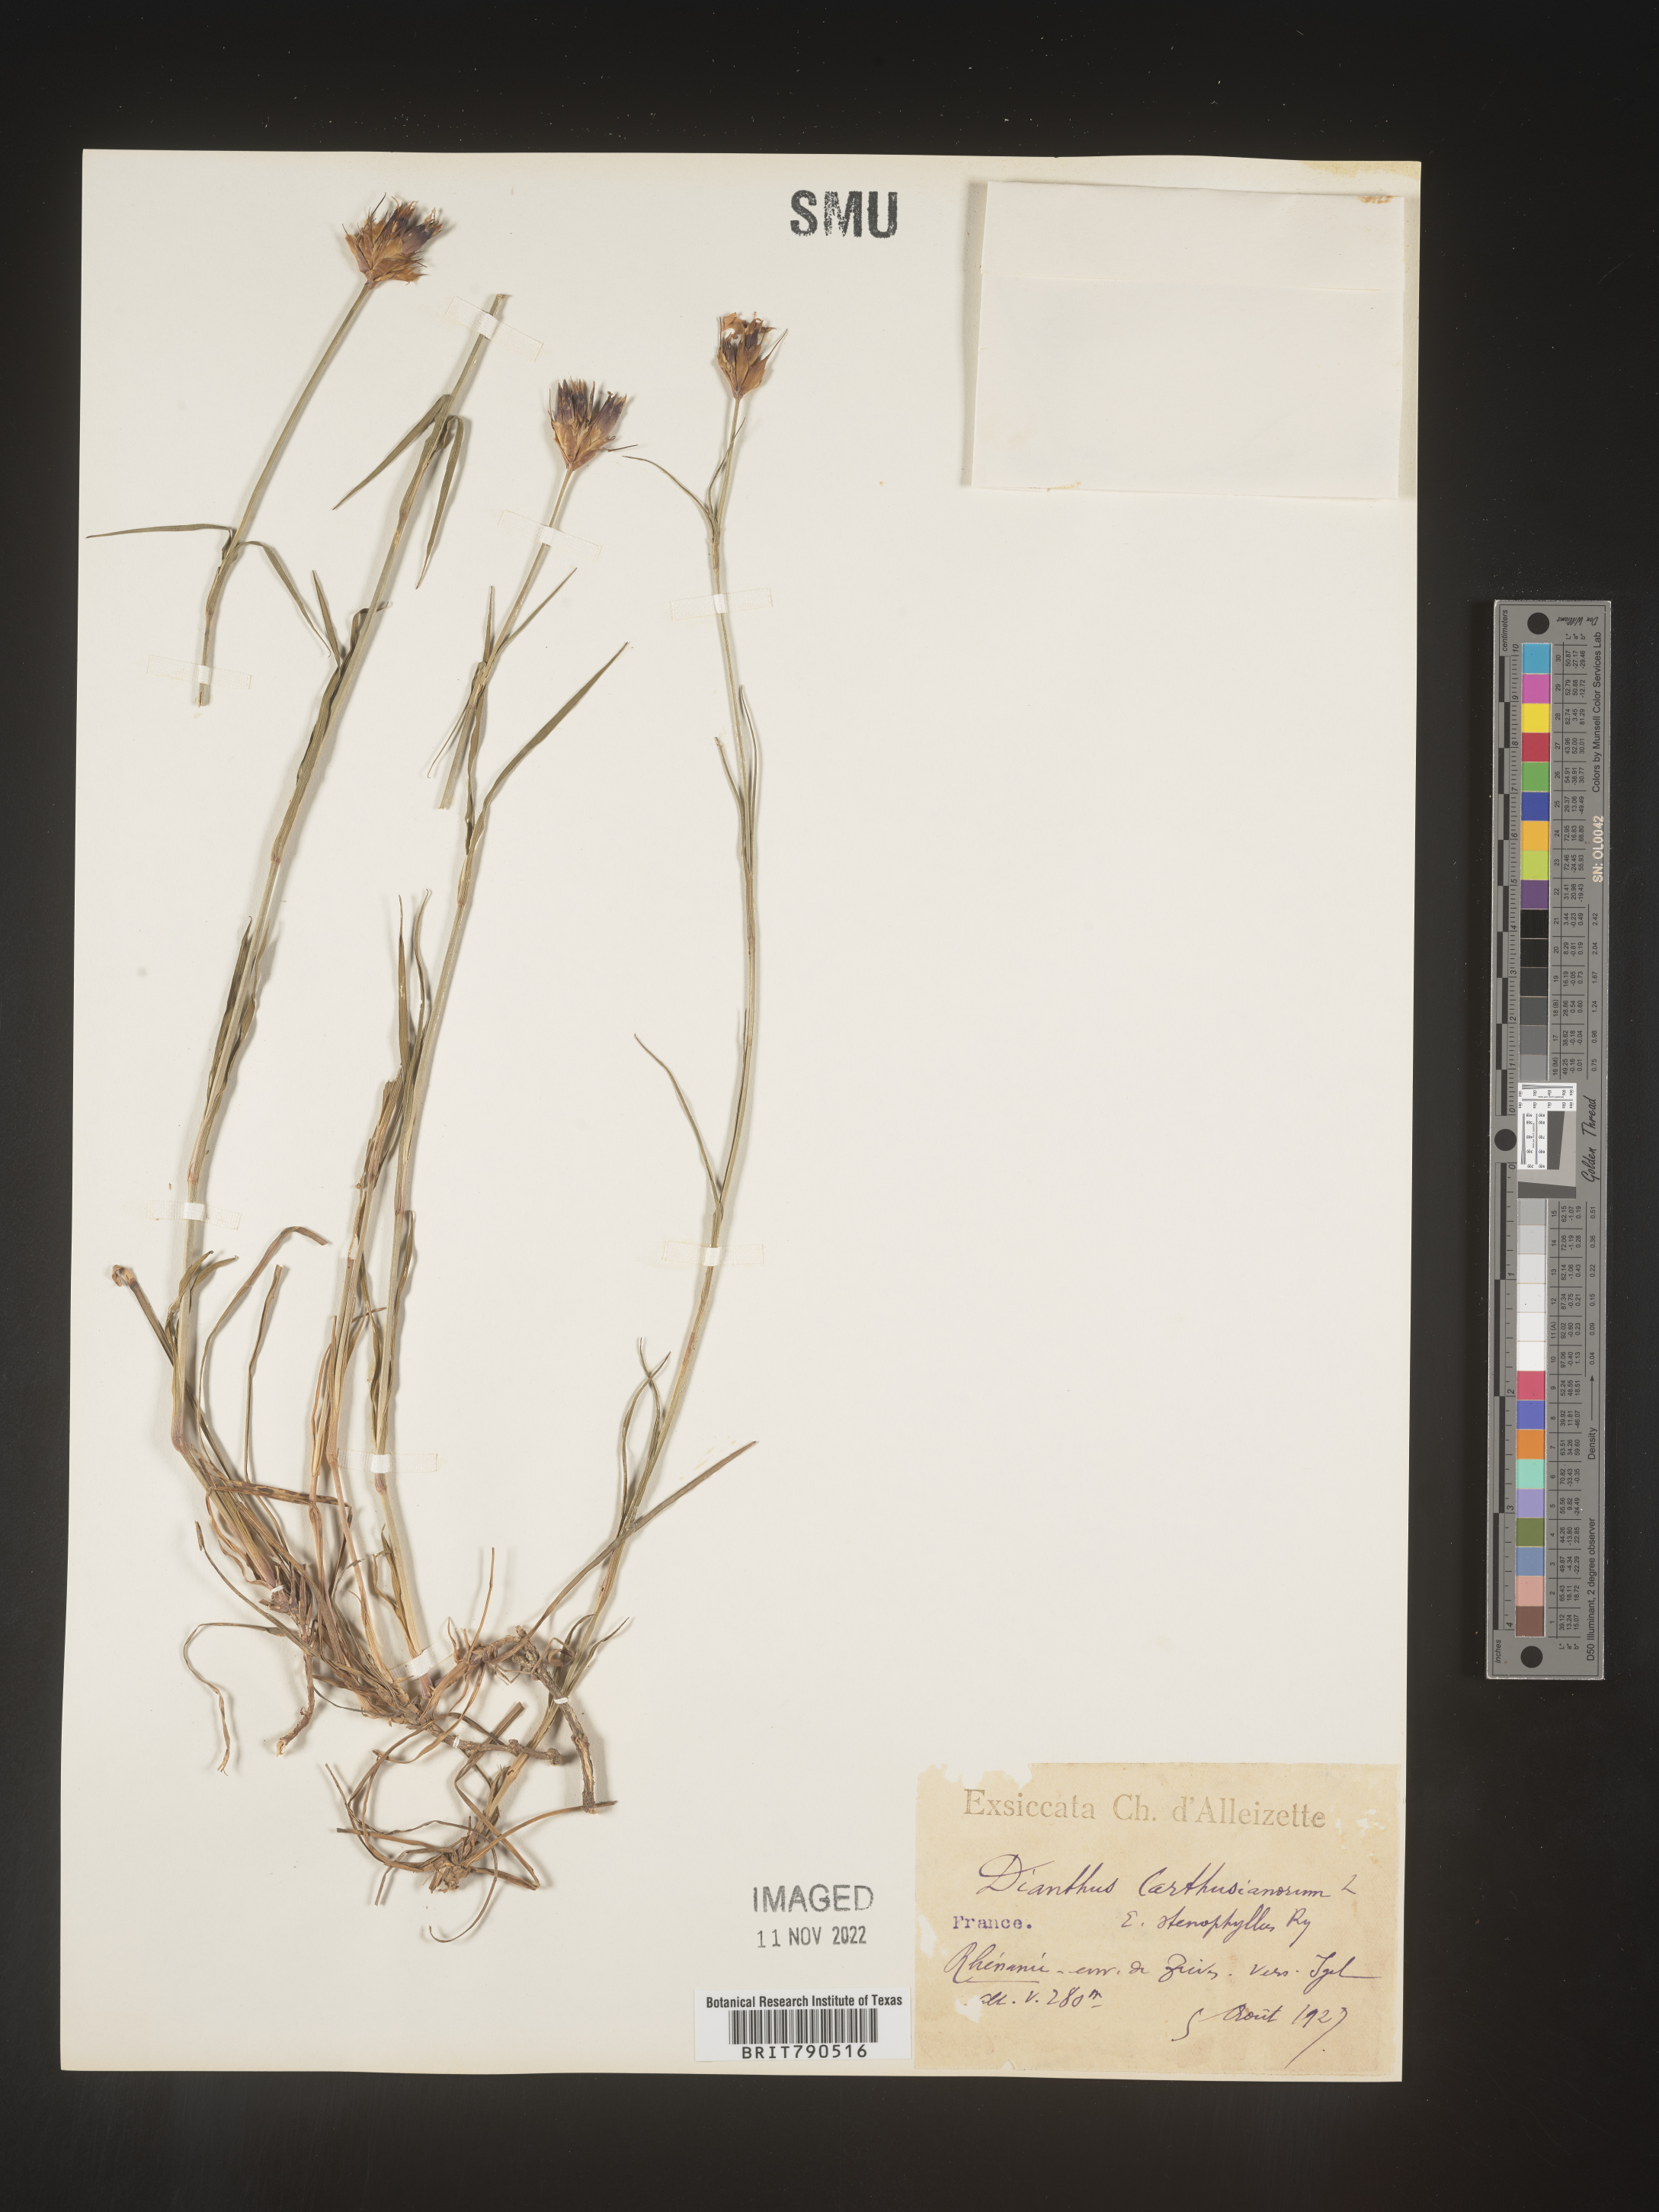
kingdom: Plantae
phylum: Tracheophyta
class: Magnoliopsida
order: Caryophyllales
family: Caryophyllaceae
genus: Dianthus
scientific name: Dianthus carthusianorum
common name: Carthusian pink
